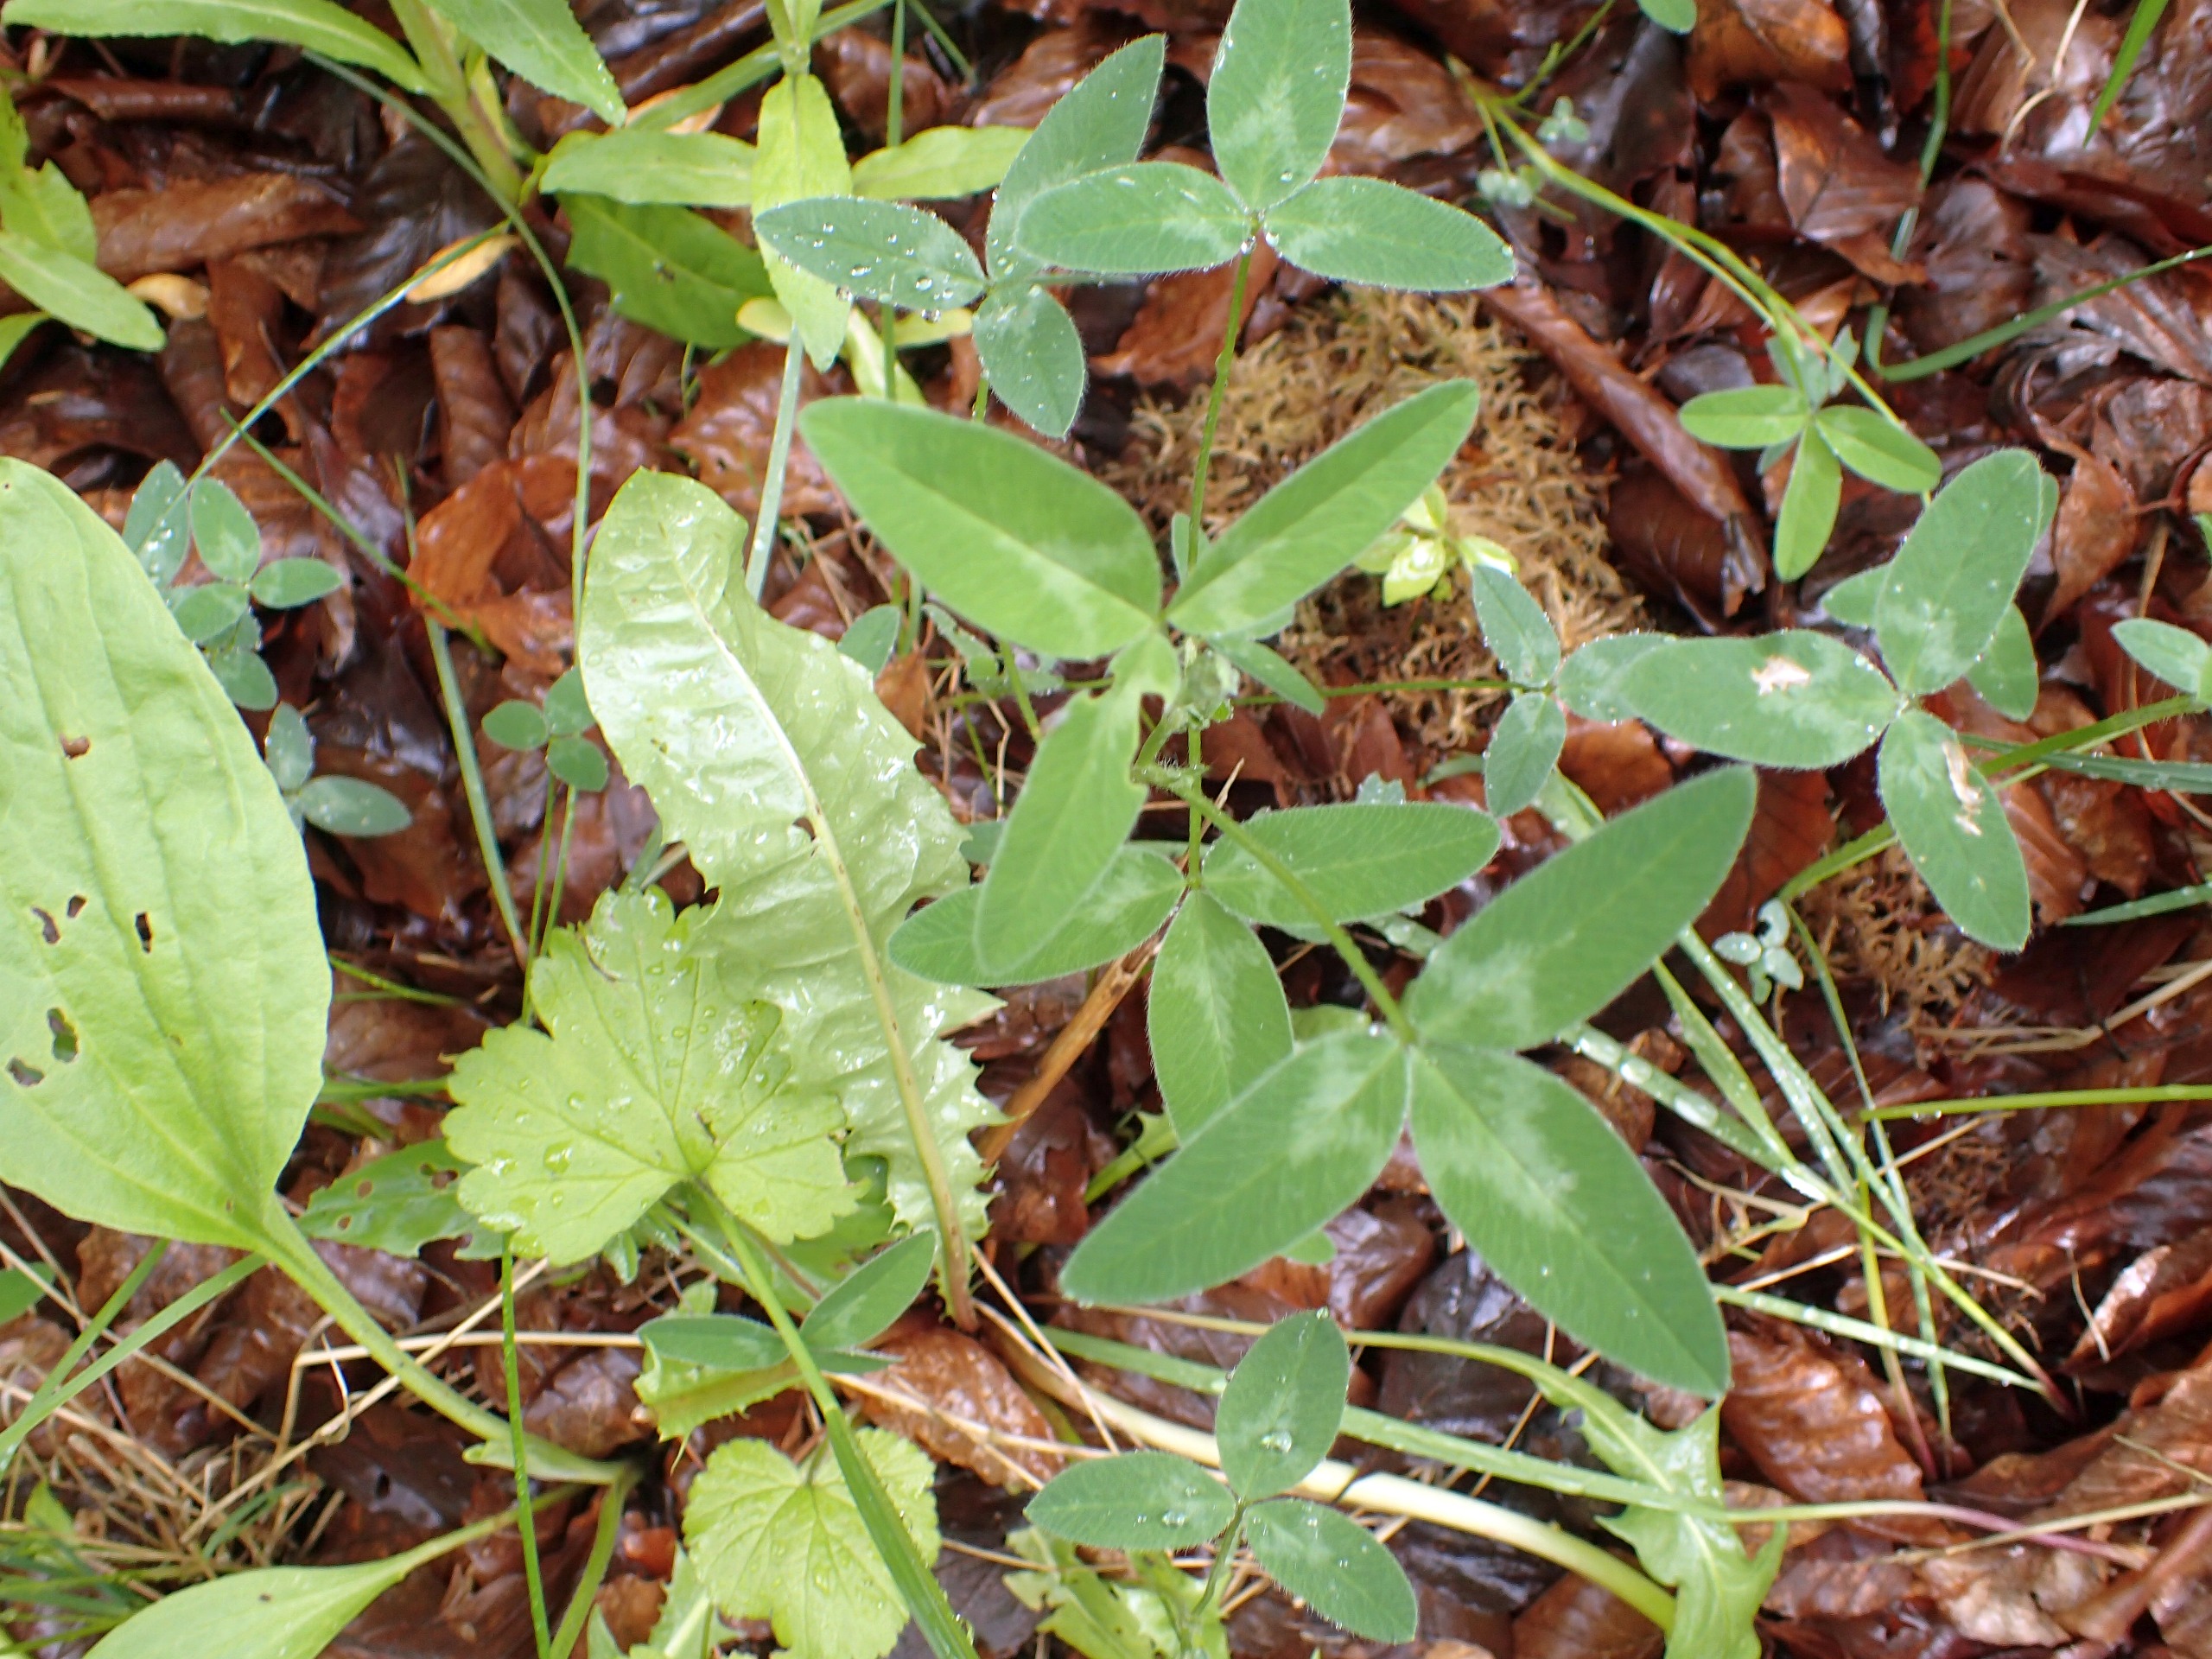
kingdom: Plantae
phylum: Tracheophyta
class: Magnoliopsida
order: Fabales
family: Fabaceae
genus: Trifolium
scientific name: Trifolium medium
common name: Bugtet kløver
